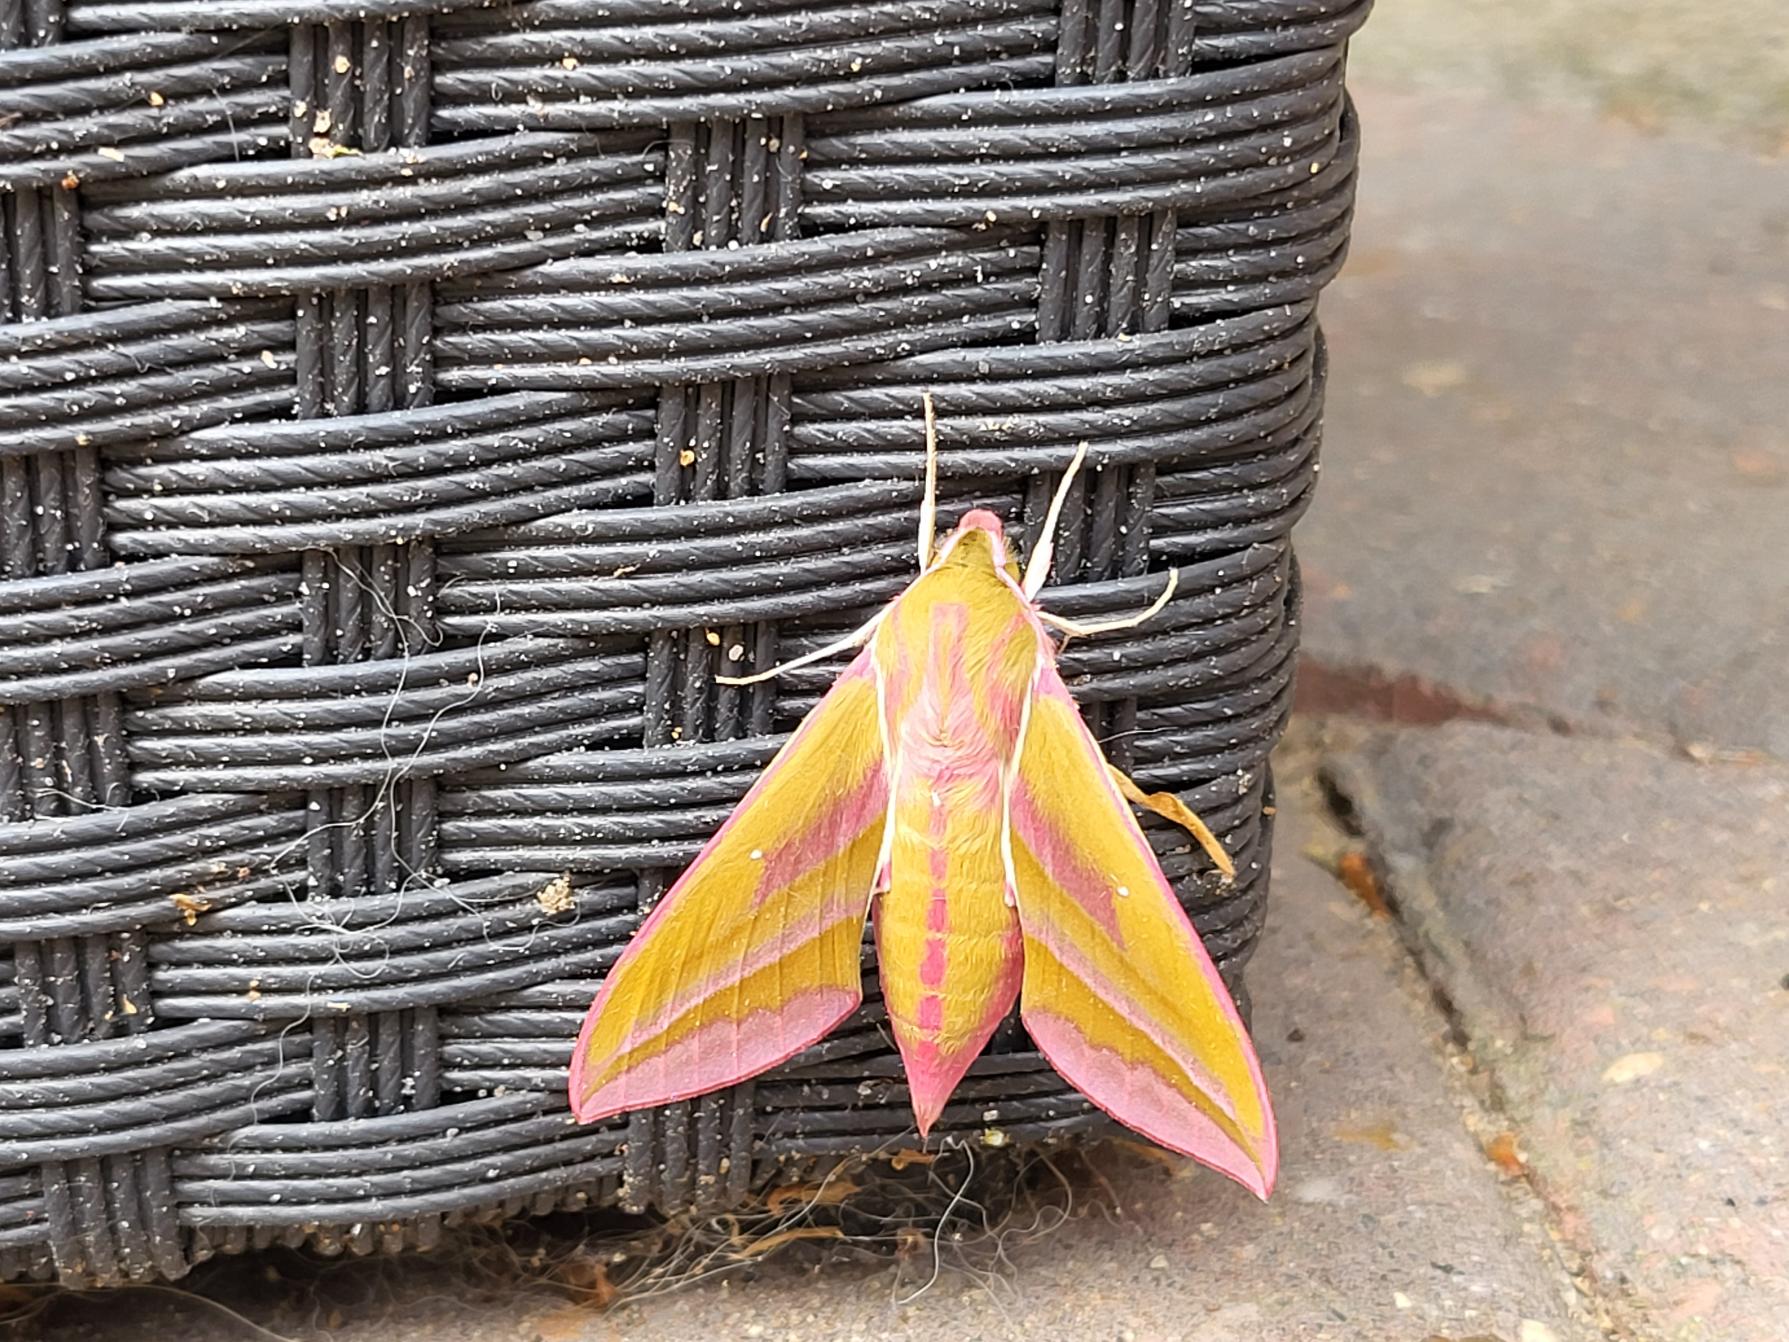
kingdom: Animalia
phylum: Arthropoda
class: Insecta
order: Lepidoptera
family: Sphingidae
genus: Deilephila
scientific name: Deilephila elpenor
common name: Dueurtsværmer
